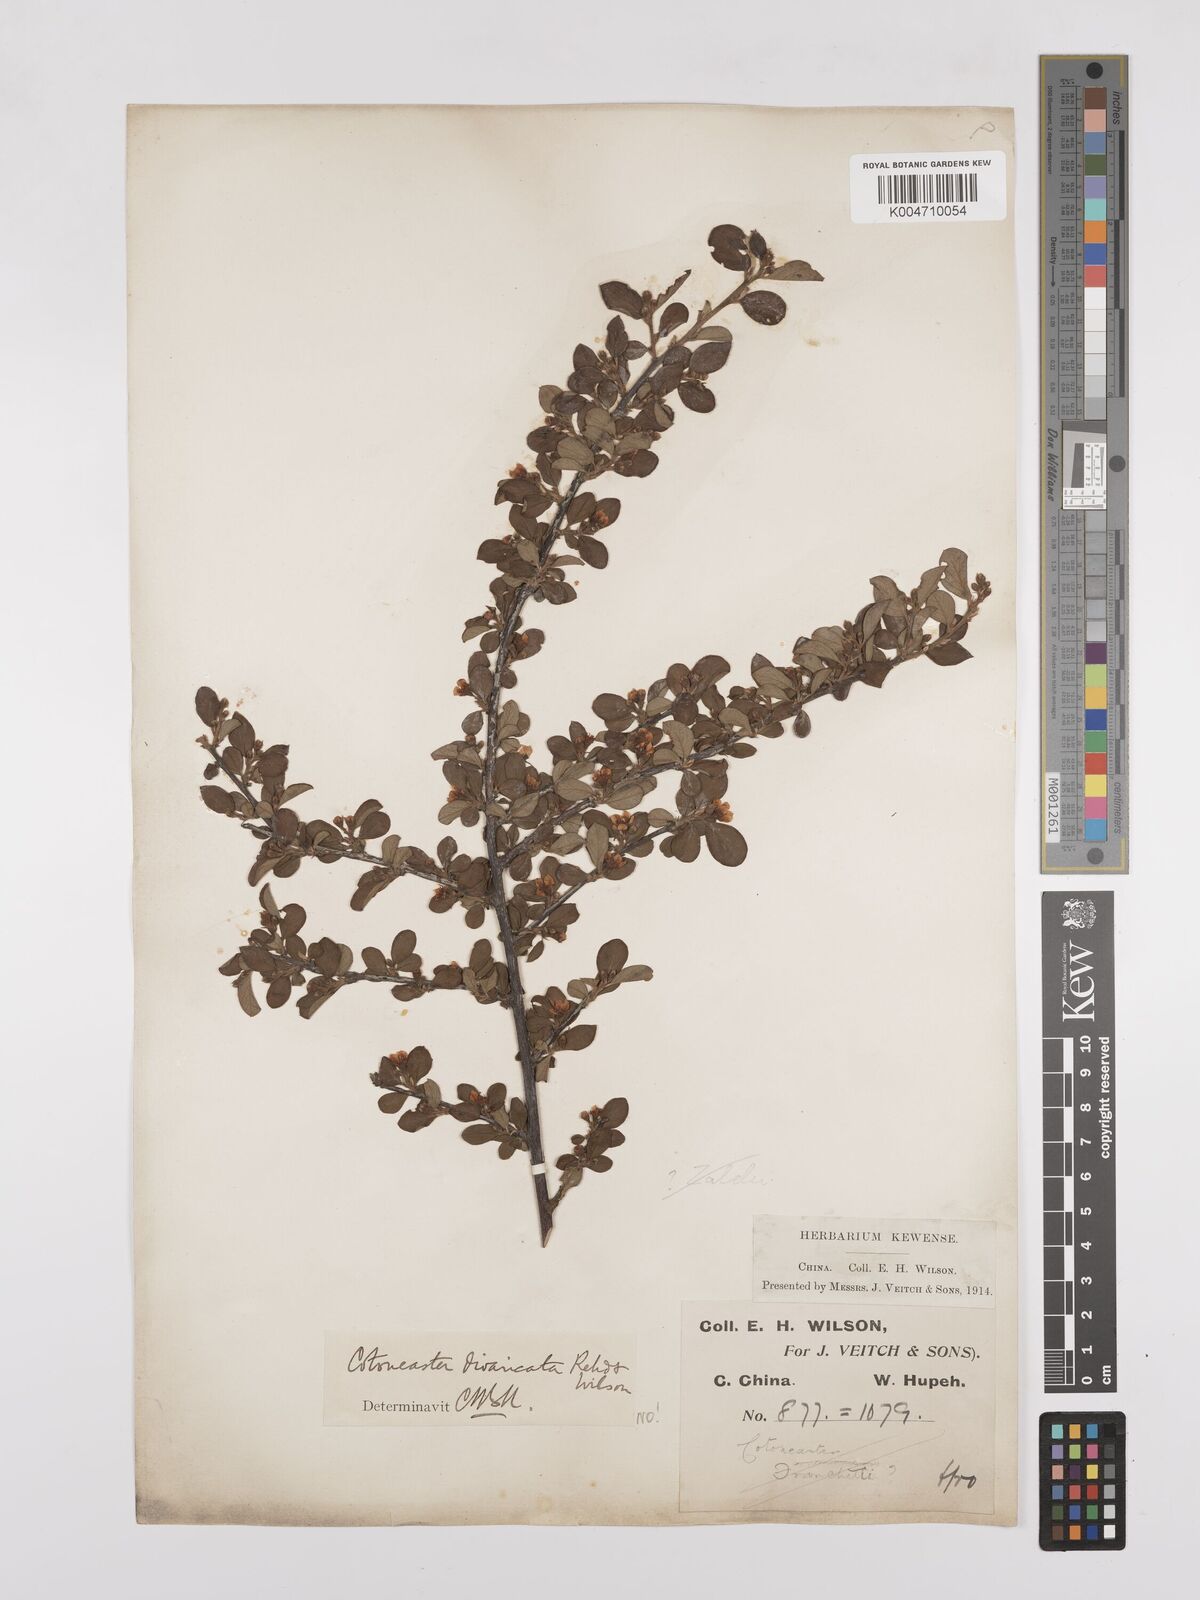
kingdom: Plantae
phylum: Tracheophyta
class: Magnoliopsida
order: Rosales
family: Rosaceae
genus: Cotoneaster
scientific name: Cotoneaster divaricatus
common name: Spreading cotoneaster
